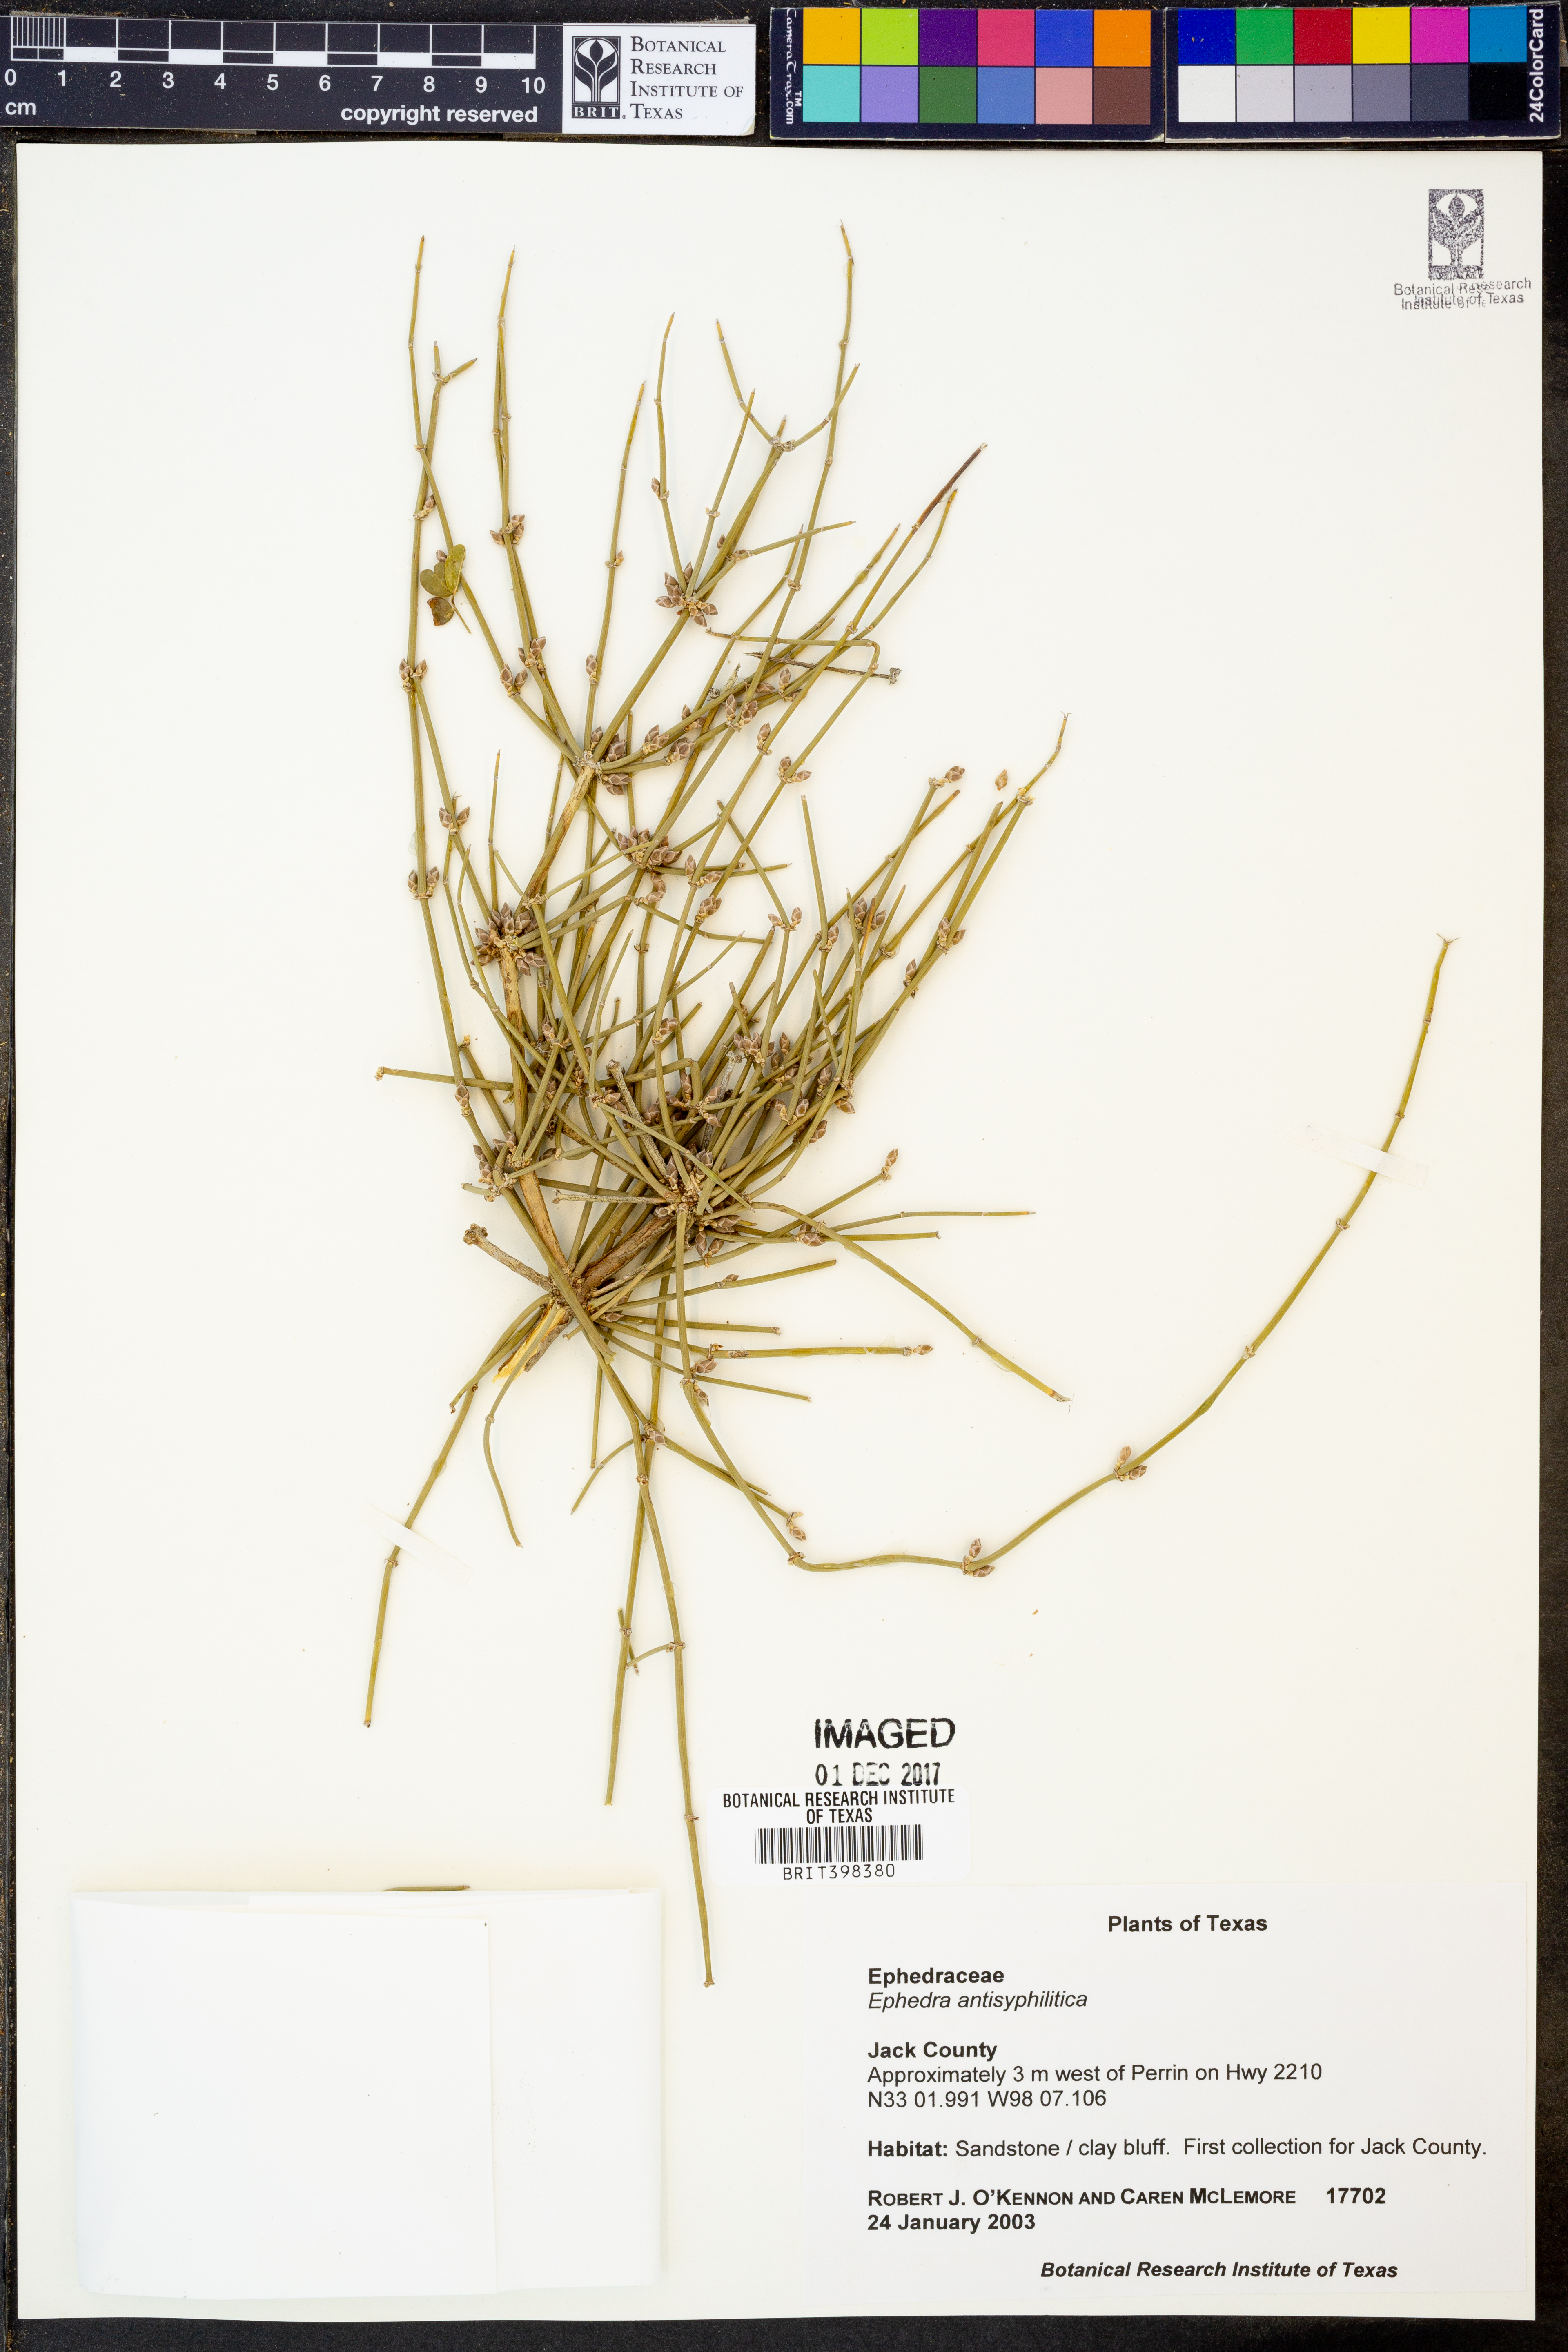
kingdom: Plantae
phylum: Tracheophyta
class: Gnetopsida
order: Ephedrales
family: Ephedraceae
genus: Ephedra
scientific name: Ephedra antisyphilitica
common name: Clipweed
